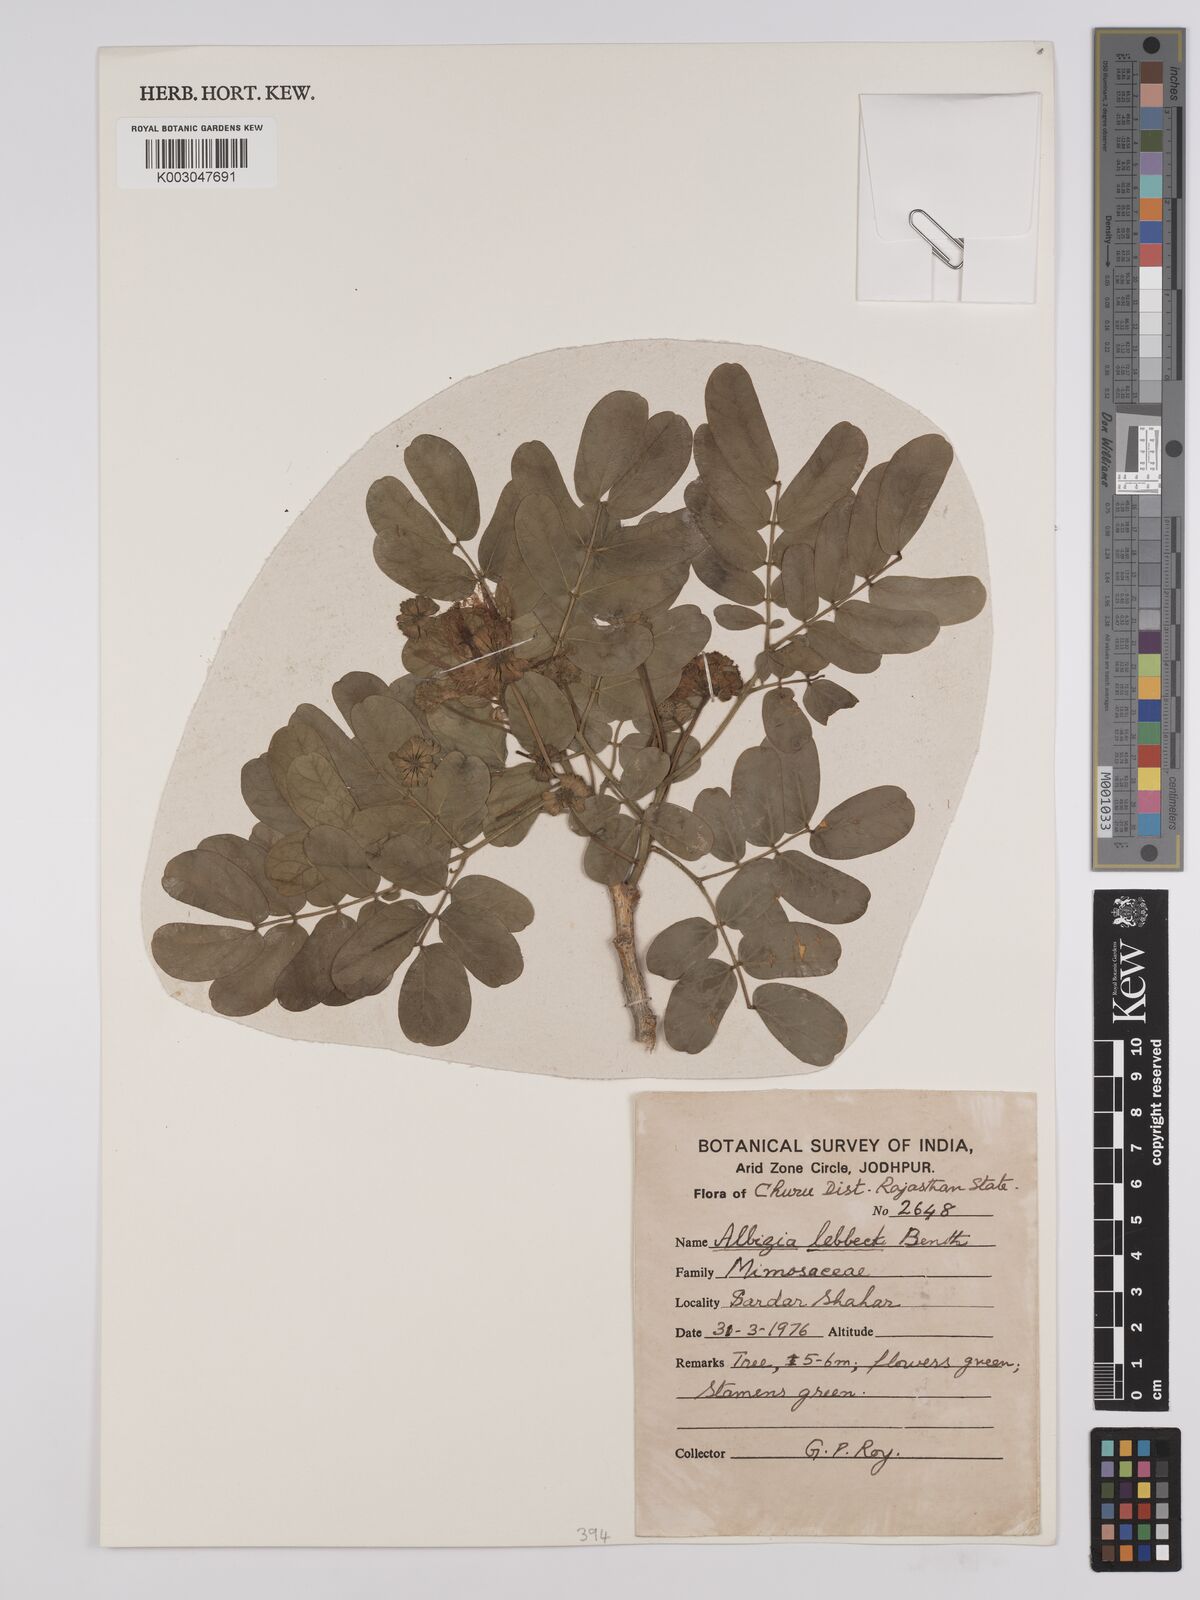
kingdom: Plantae
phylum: Tracheophyta
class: Magnoliopsida
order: Fabales
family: Fabaceae
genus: Albizia
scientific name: Albizia lebbeck
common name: Woman's tongue
